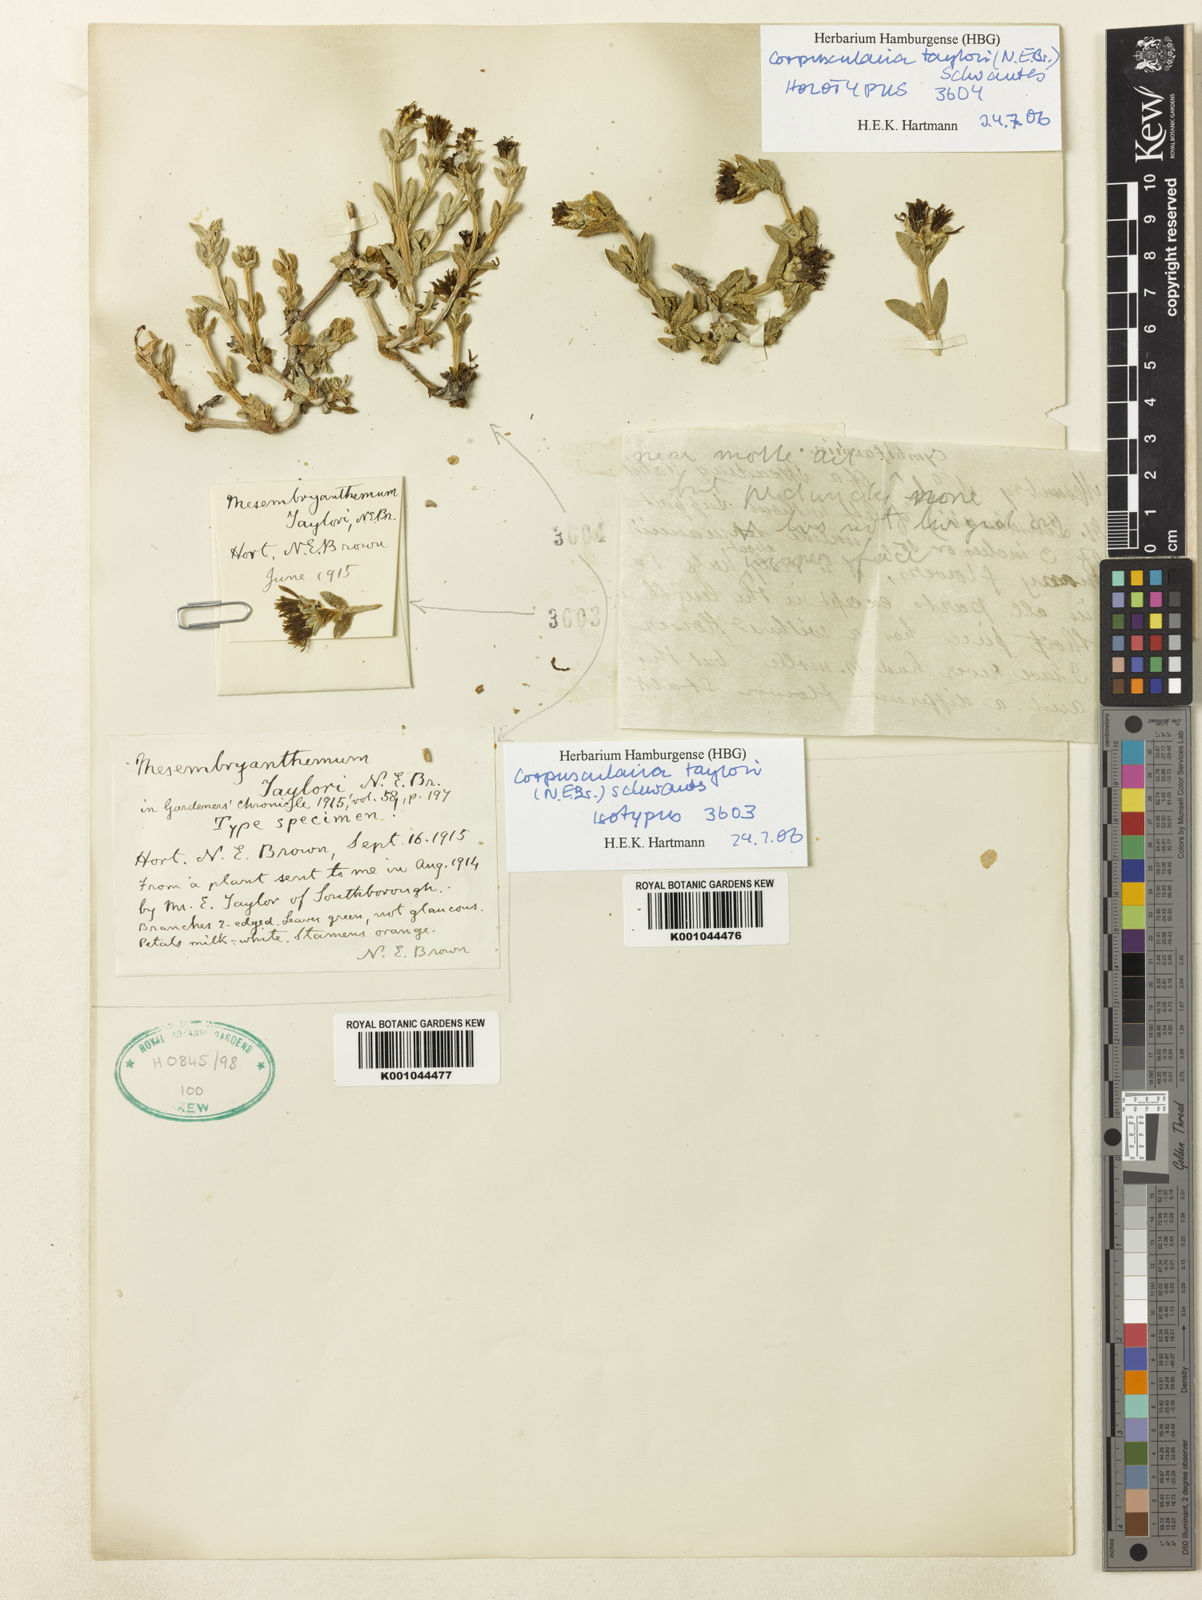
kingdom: Plantae
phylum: Tracheophyta
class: Magnoliopsida
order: Caryophyllales
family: Aizoaceae
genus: Corpuscularia
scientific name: Corpuscularia taylorii
